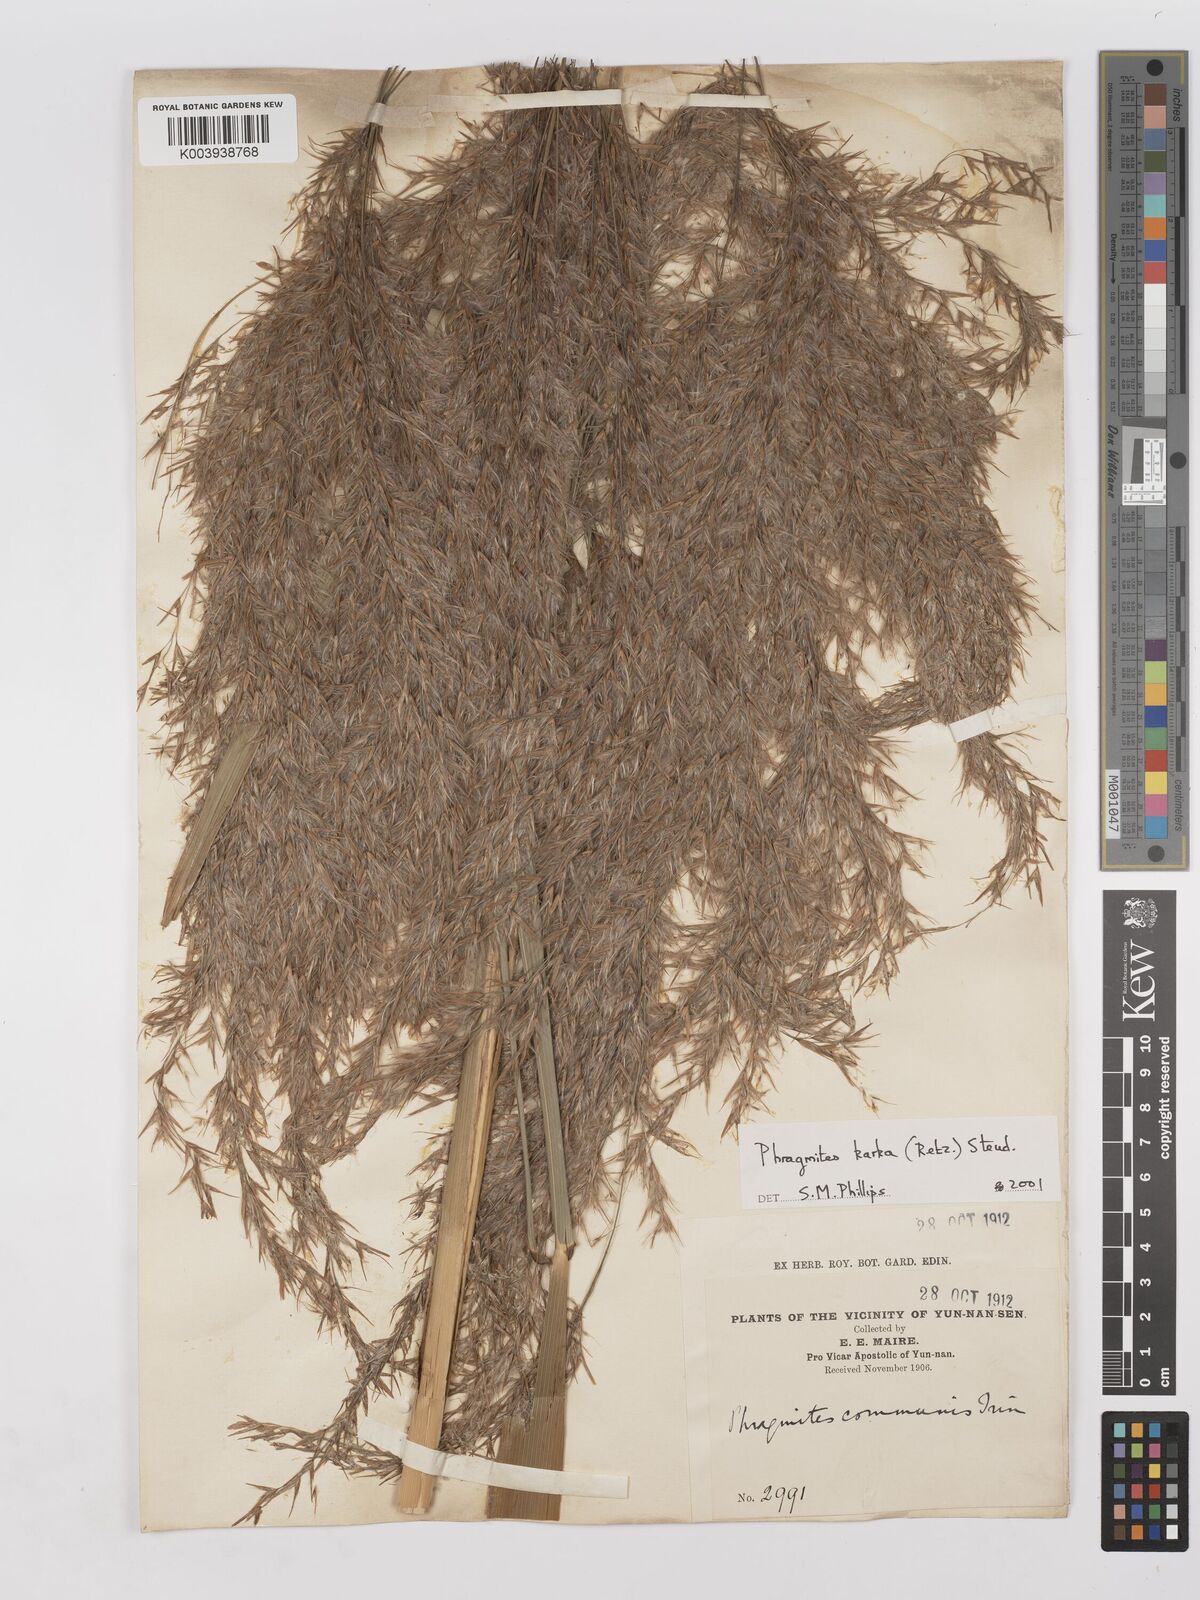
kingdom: Plantae
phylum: Tracheophyta
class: Liliopsida
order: Poales
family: Poaceae
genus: Phragmites
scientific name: Phragmites karka
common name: Tropical reed
